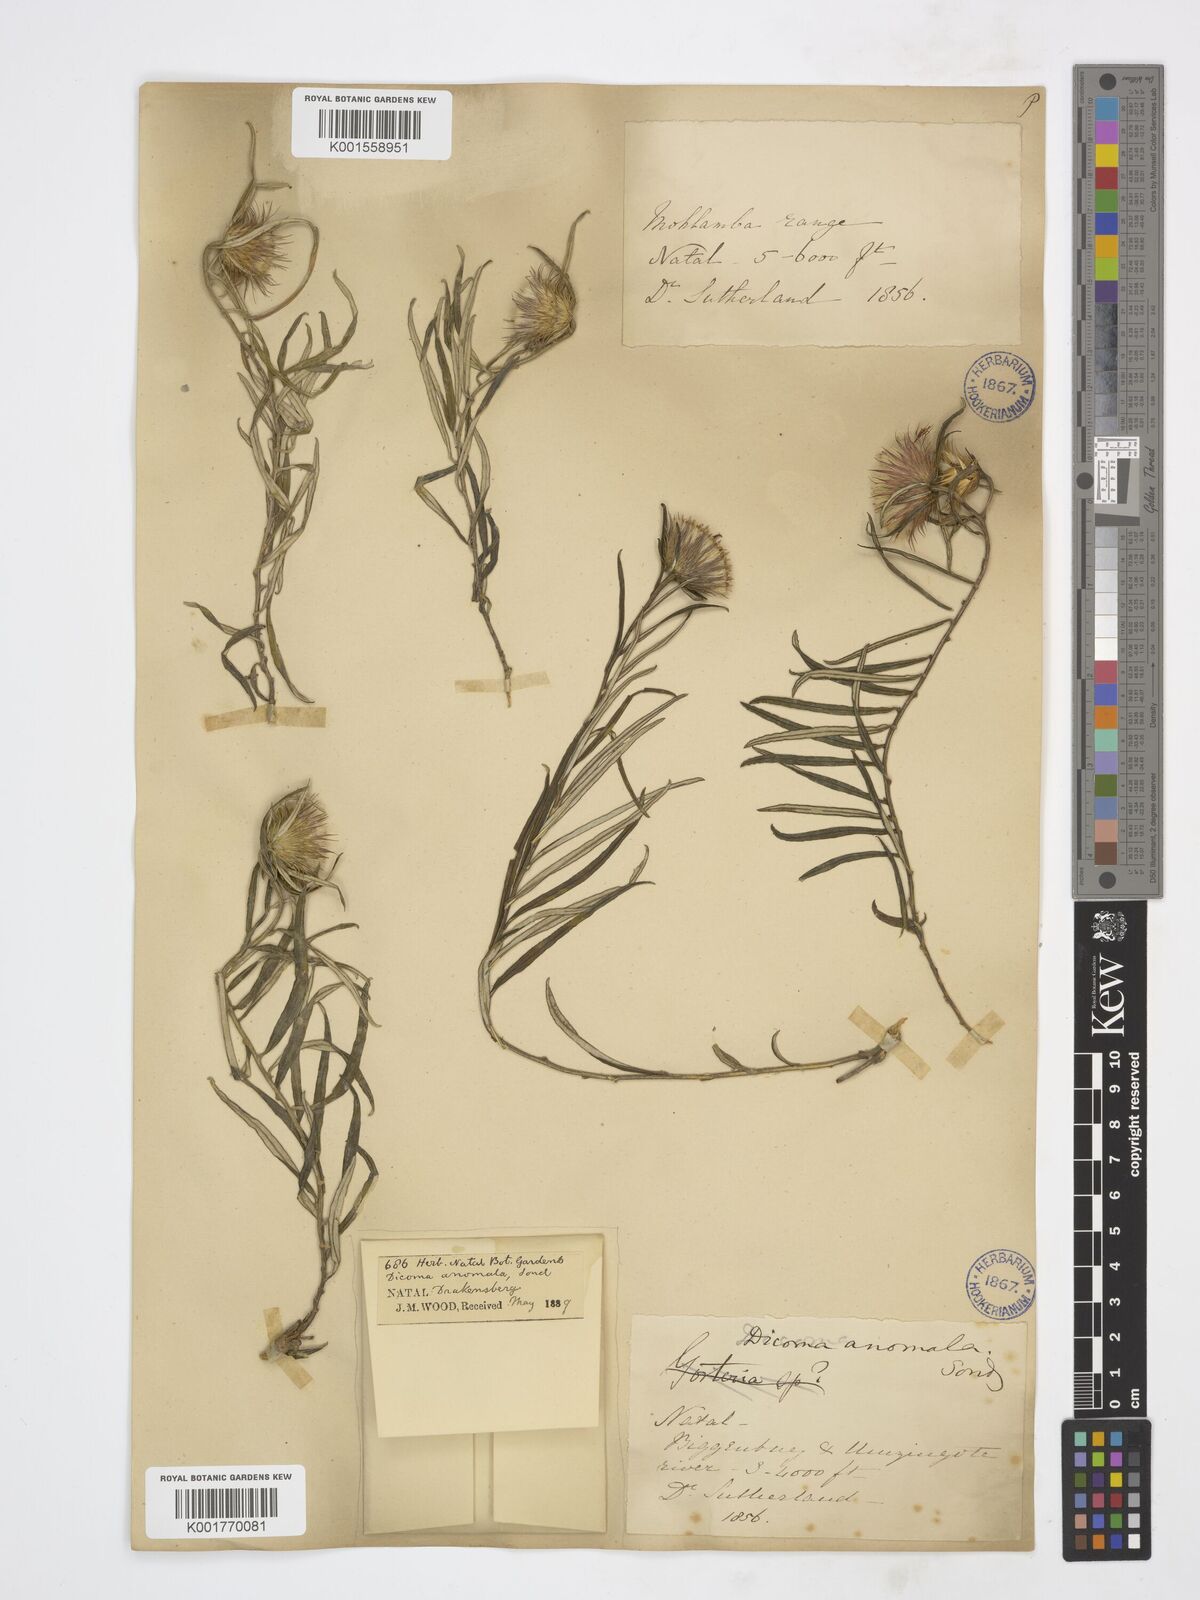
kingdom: Plantae
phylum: Tracheophyta
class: Magnoliopsida
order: Asterales
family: Asteraceae
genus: Dicoma
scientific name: Dicoma anomala
